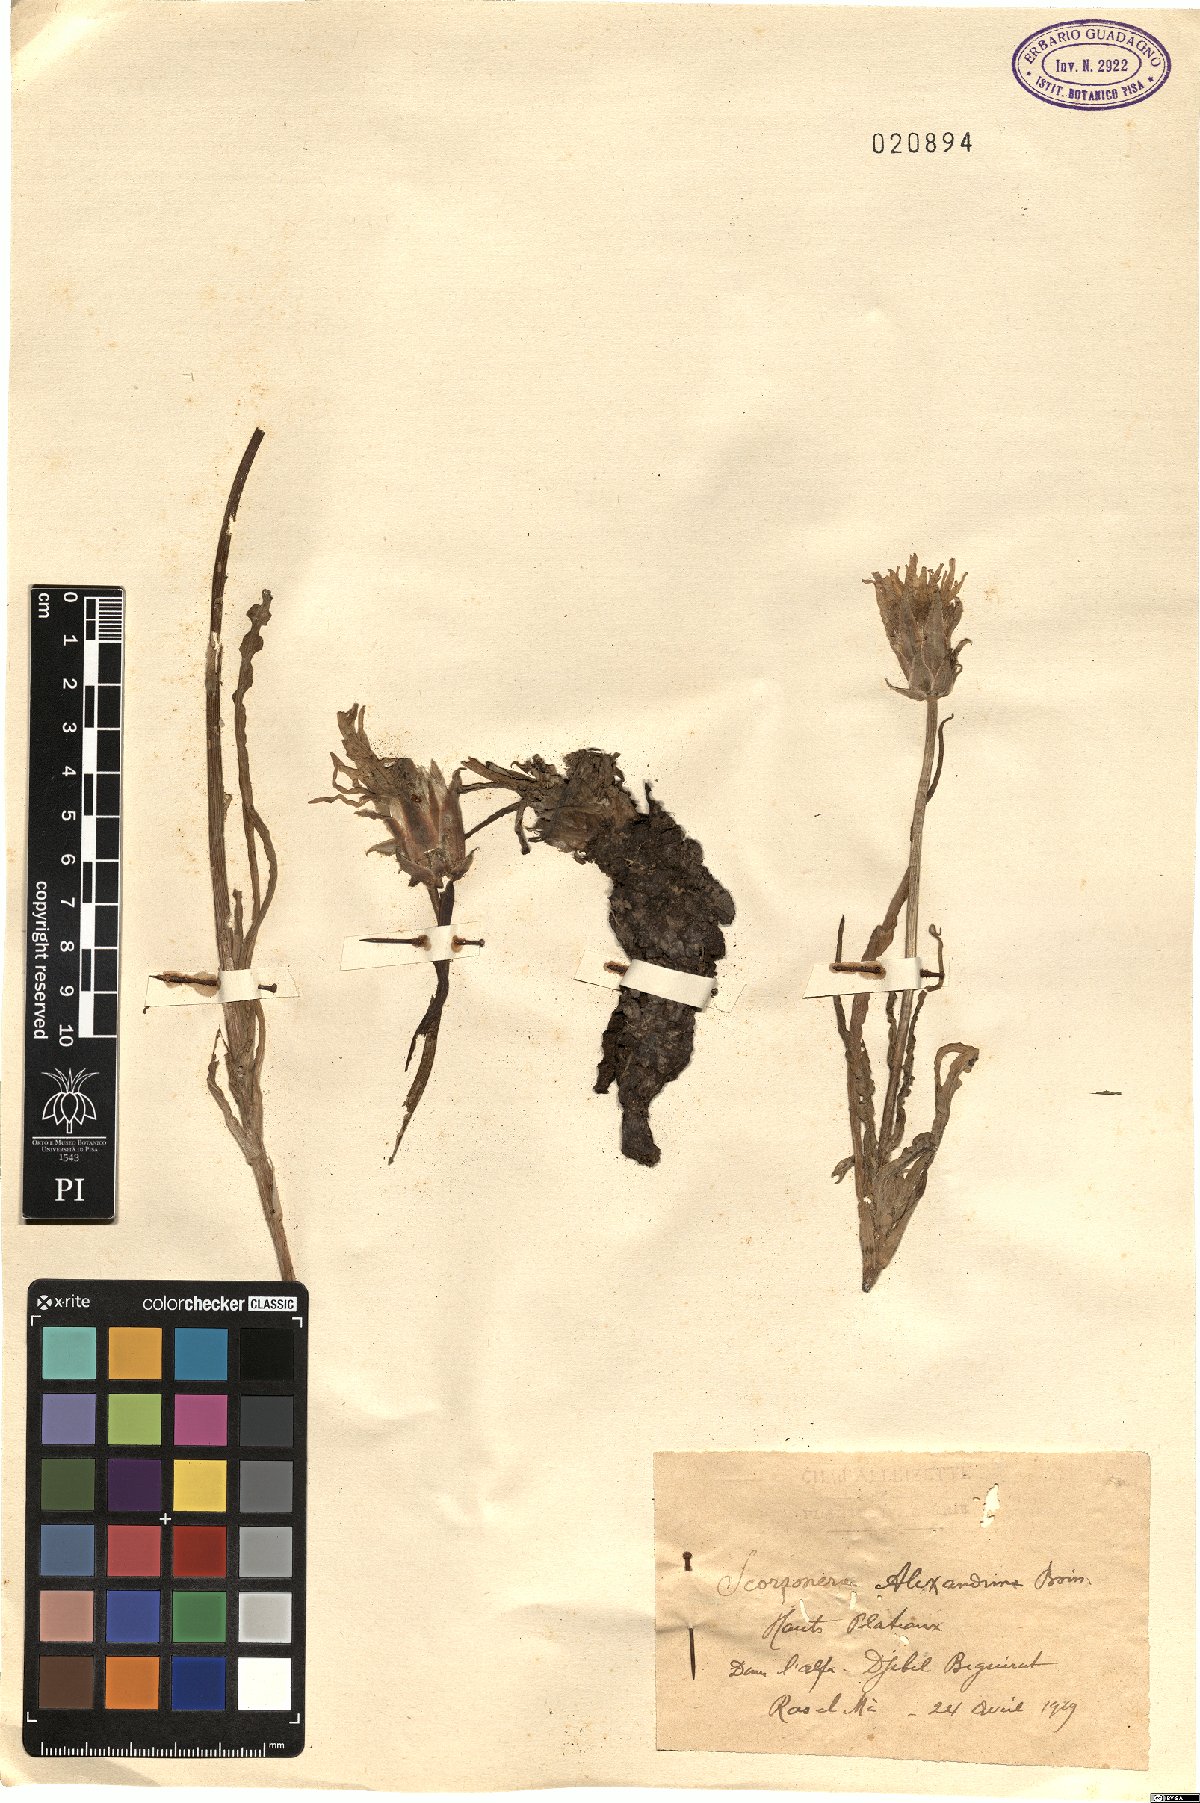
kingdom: Plantae
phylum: Tracheophyta
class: Magnoliopsida
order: Asterales
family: Asteraceae
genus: Pseudopodospermum
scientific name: Pseudopodospermum undulatum
